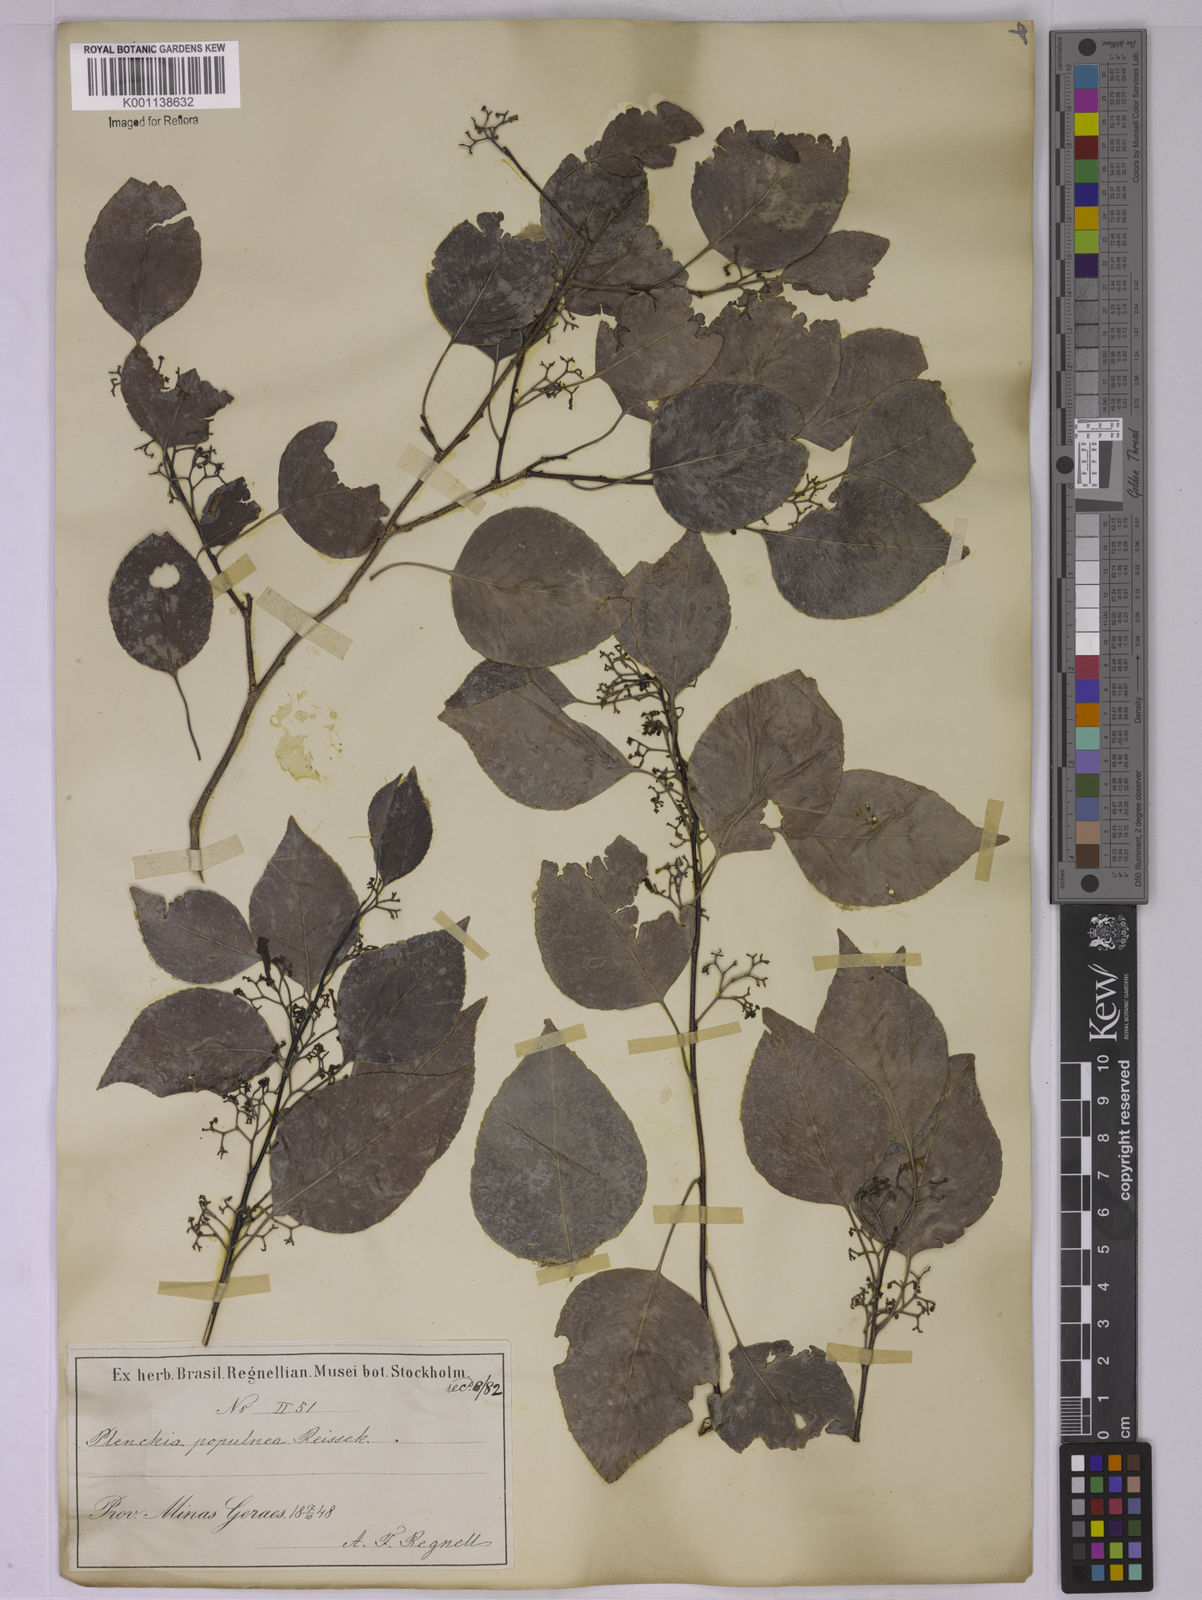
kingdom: Plantae
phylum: Tracheophyta
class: Magnoliopsida
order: Celastrales
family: Celastraceae
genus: Plenckia
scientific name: Plenckia populnea
